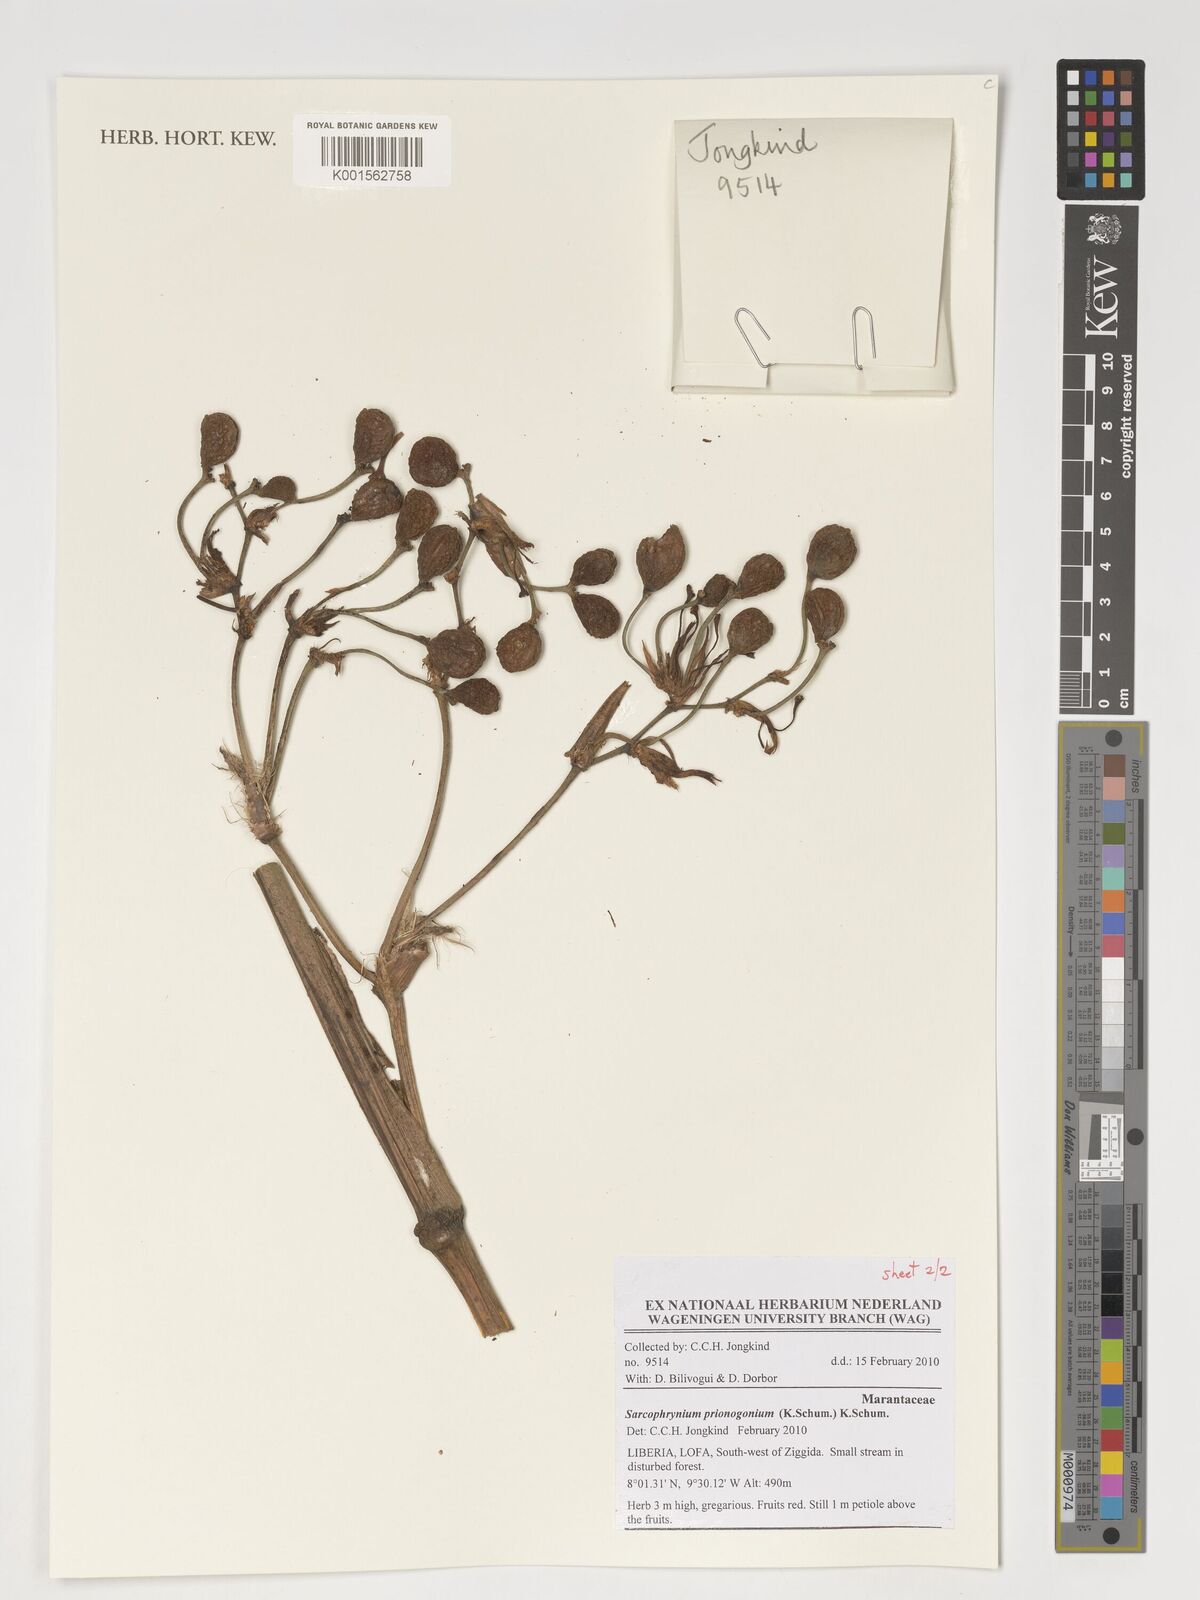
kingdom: Plantae
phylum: Tracheophyta
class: Liliopsida
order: Zingiberales
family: Marantaceae
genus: Sarcophrynium
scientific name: Sarcophrynium prionogonium
